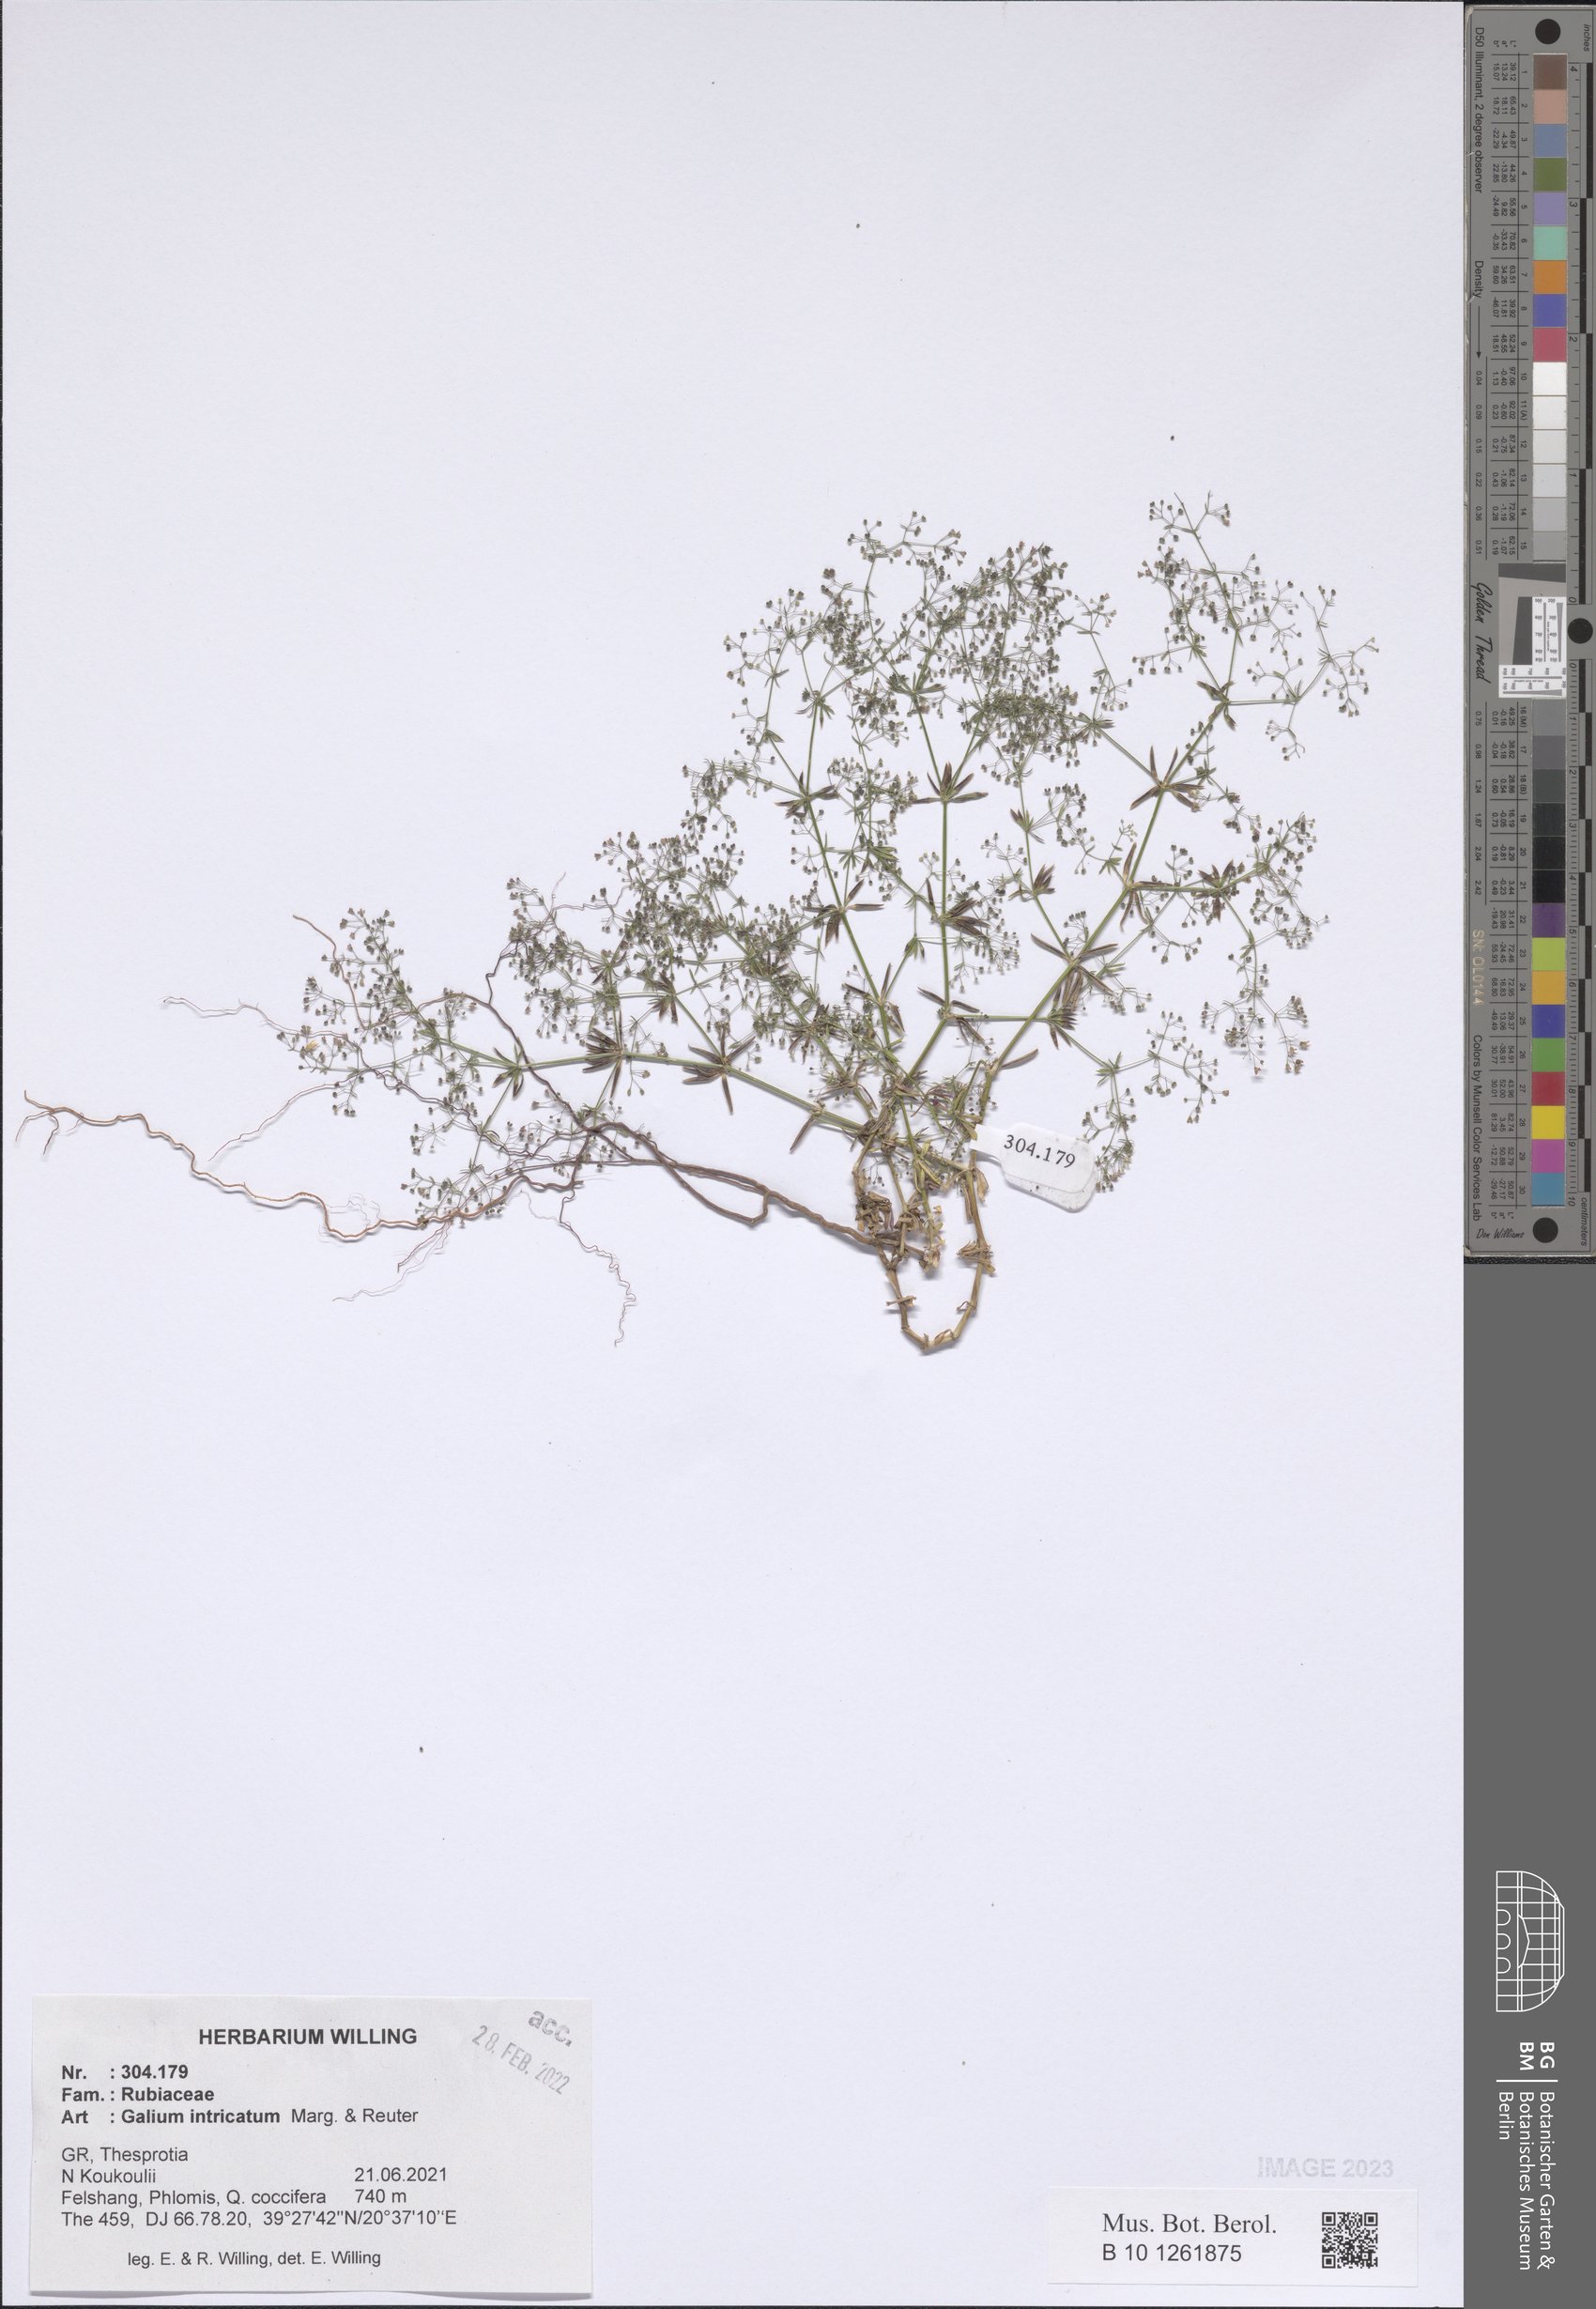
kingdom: Plantae
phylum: Tracheophyta
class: Magnoliopsida
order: Gentianales
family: Rubiaceae
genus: Galium
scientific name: Galium intricatum
